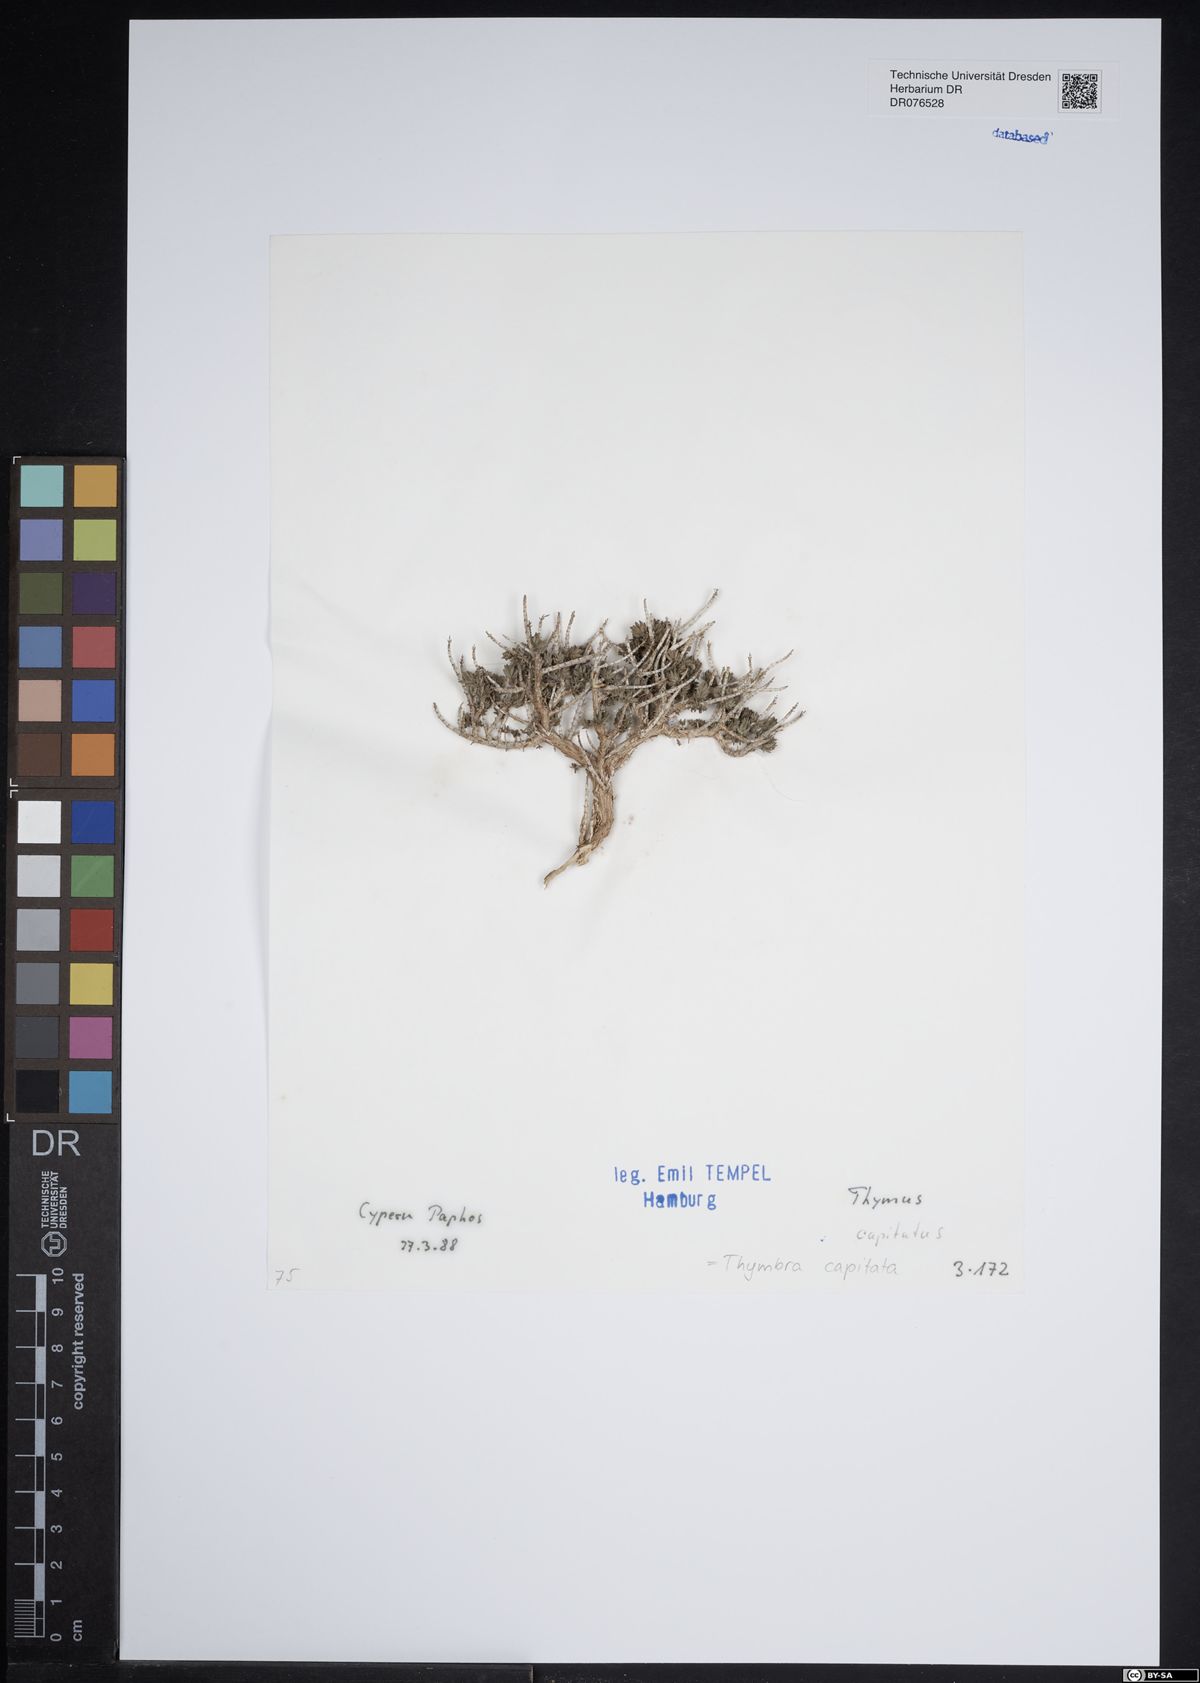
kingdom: Plantae
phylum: Tracheophyta
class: Magnoliopsida
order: Lamiales
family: Lamiaceae
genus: Thymbra
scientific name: Thymbra capitata
